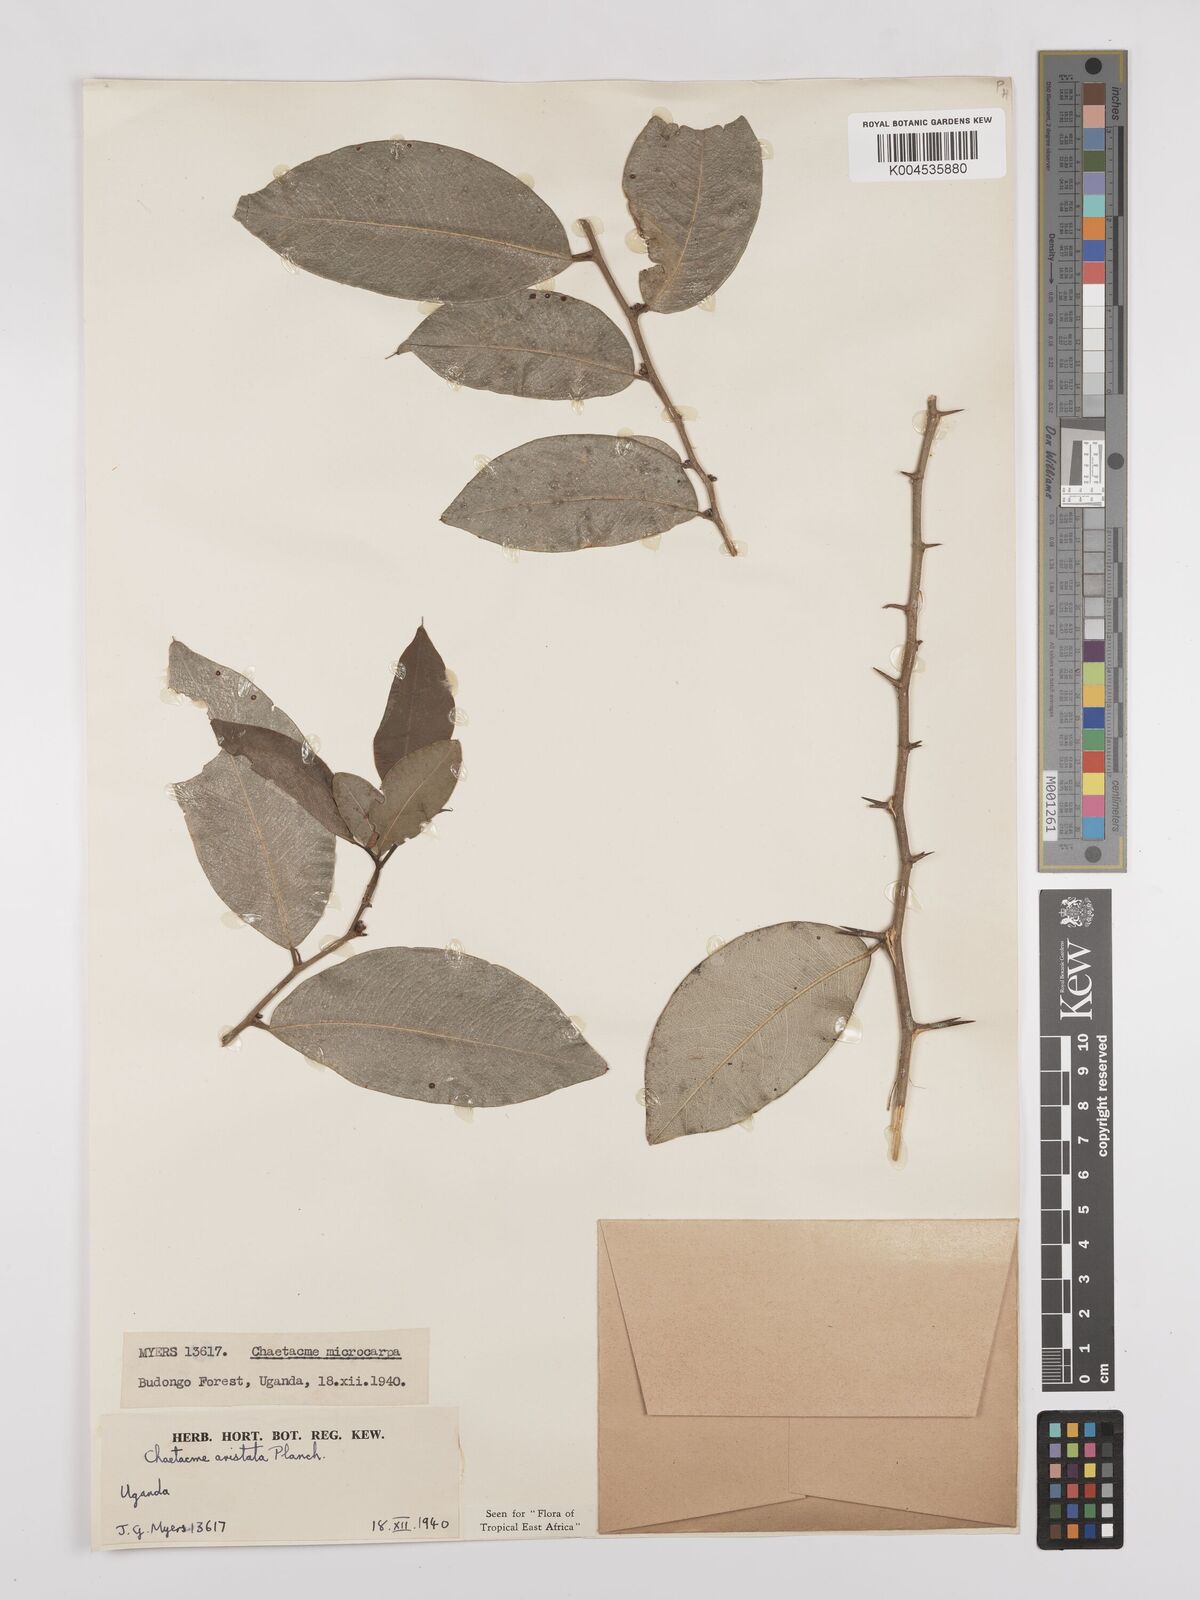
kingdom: Plantae
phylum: Tracheophyta
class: Magnoliopsida
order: Rosales
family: Cannabaceae
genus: Chaetachme
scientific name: Chaetachme aristata
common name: Thorny elm
